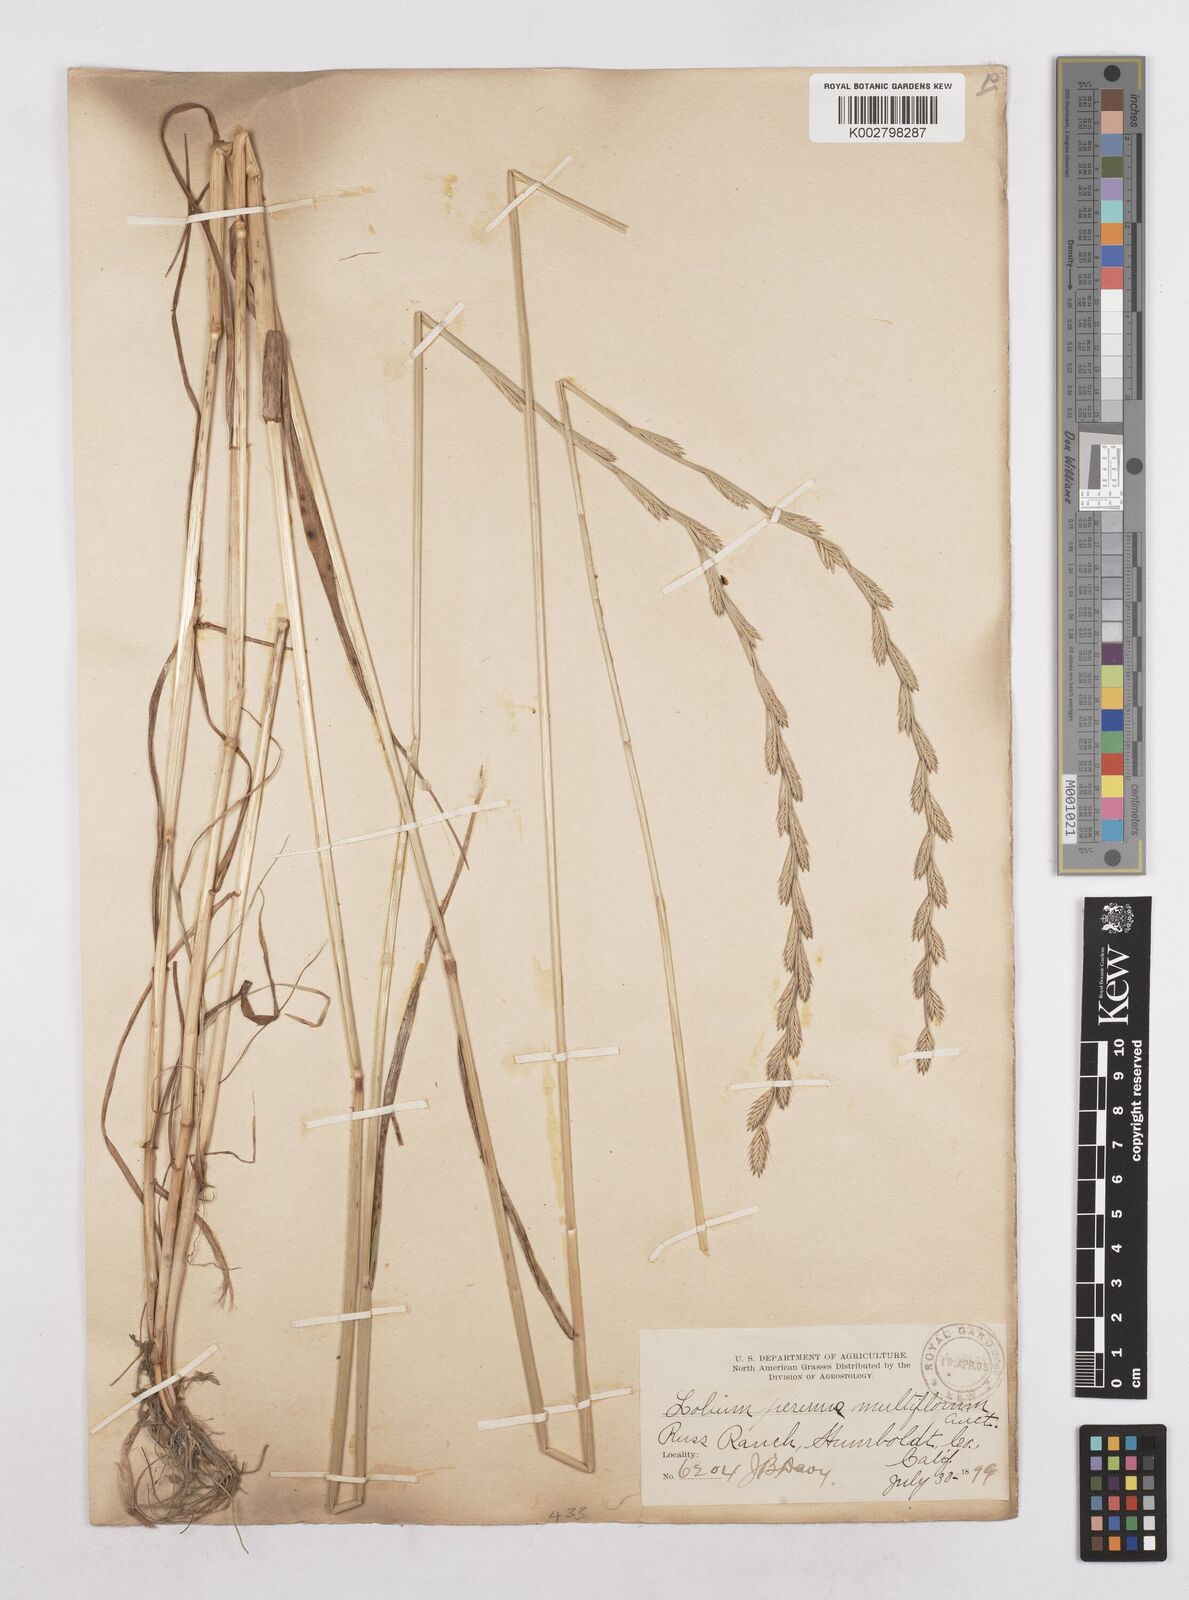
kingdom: Plantae
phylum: Tracheophyta
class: Liliopsida
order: Poales
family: Poaceae
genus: Lolium
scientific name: Lolium multiflorum
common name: Annual ryegrass
